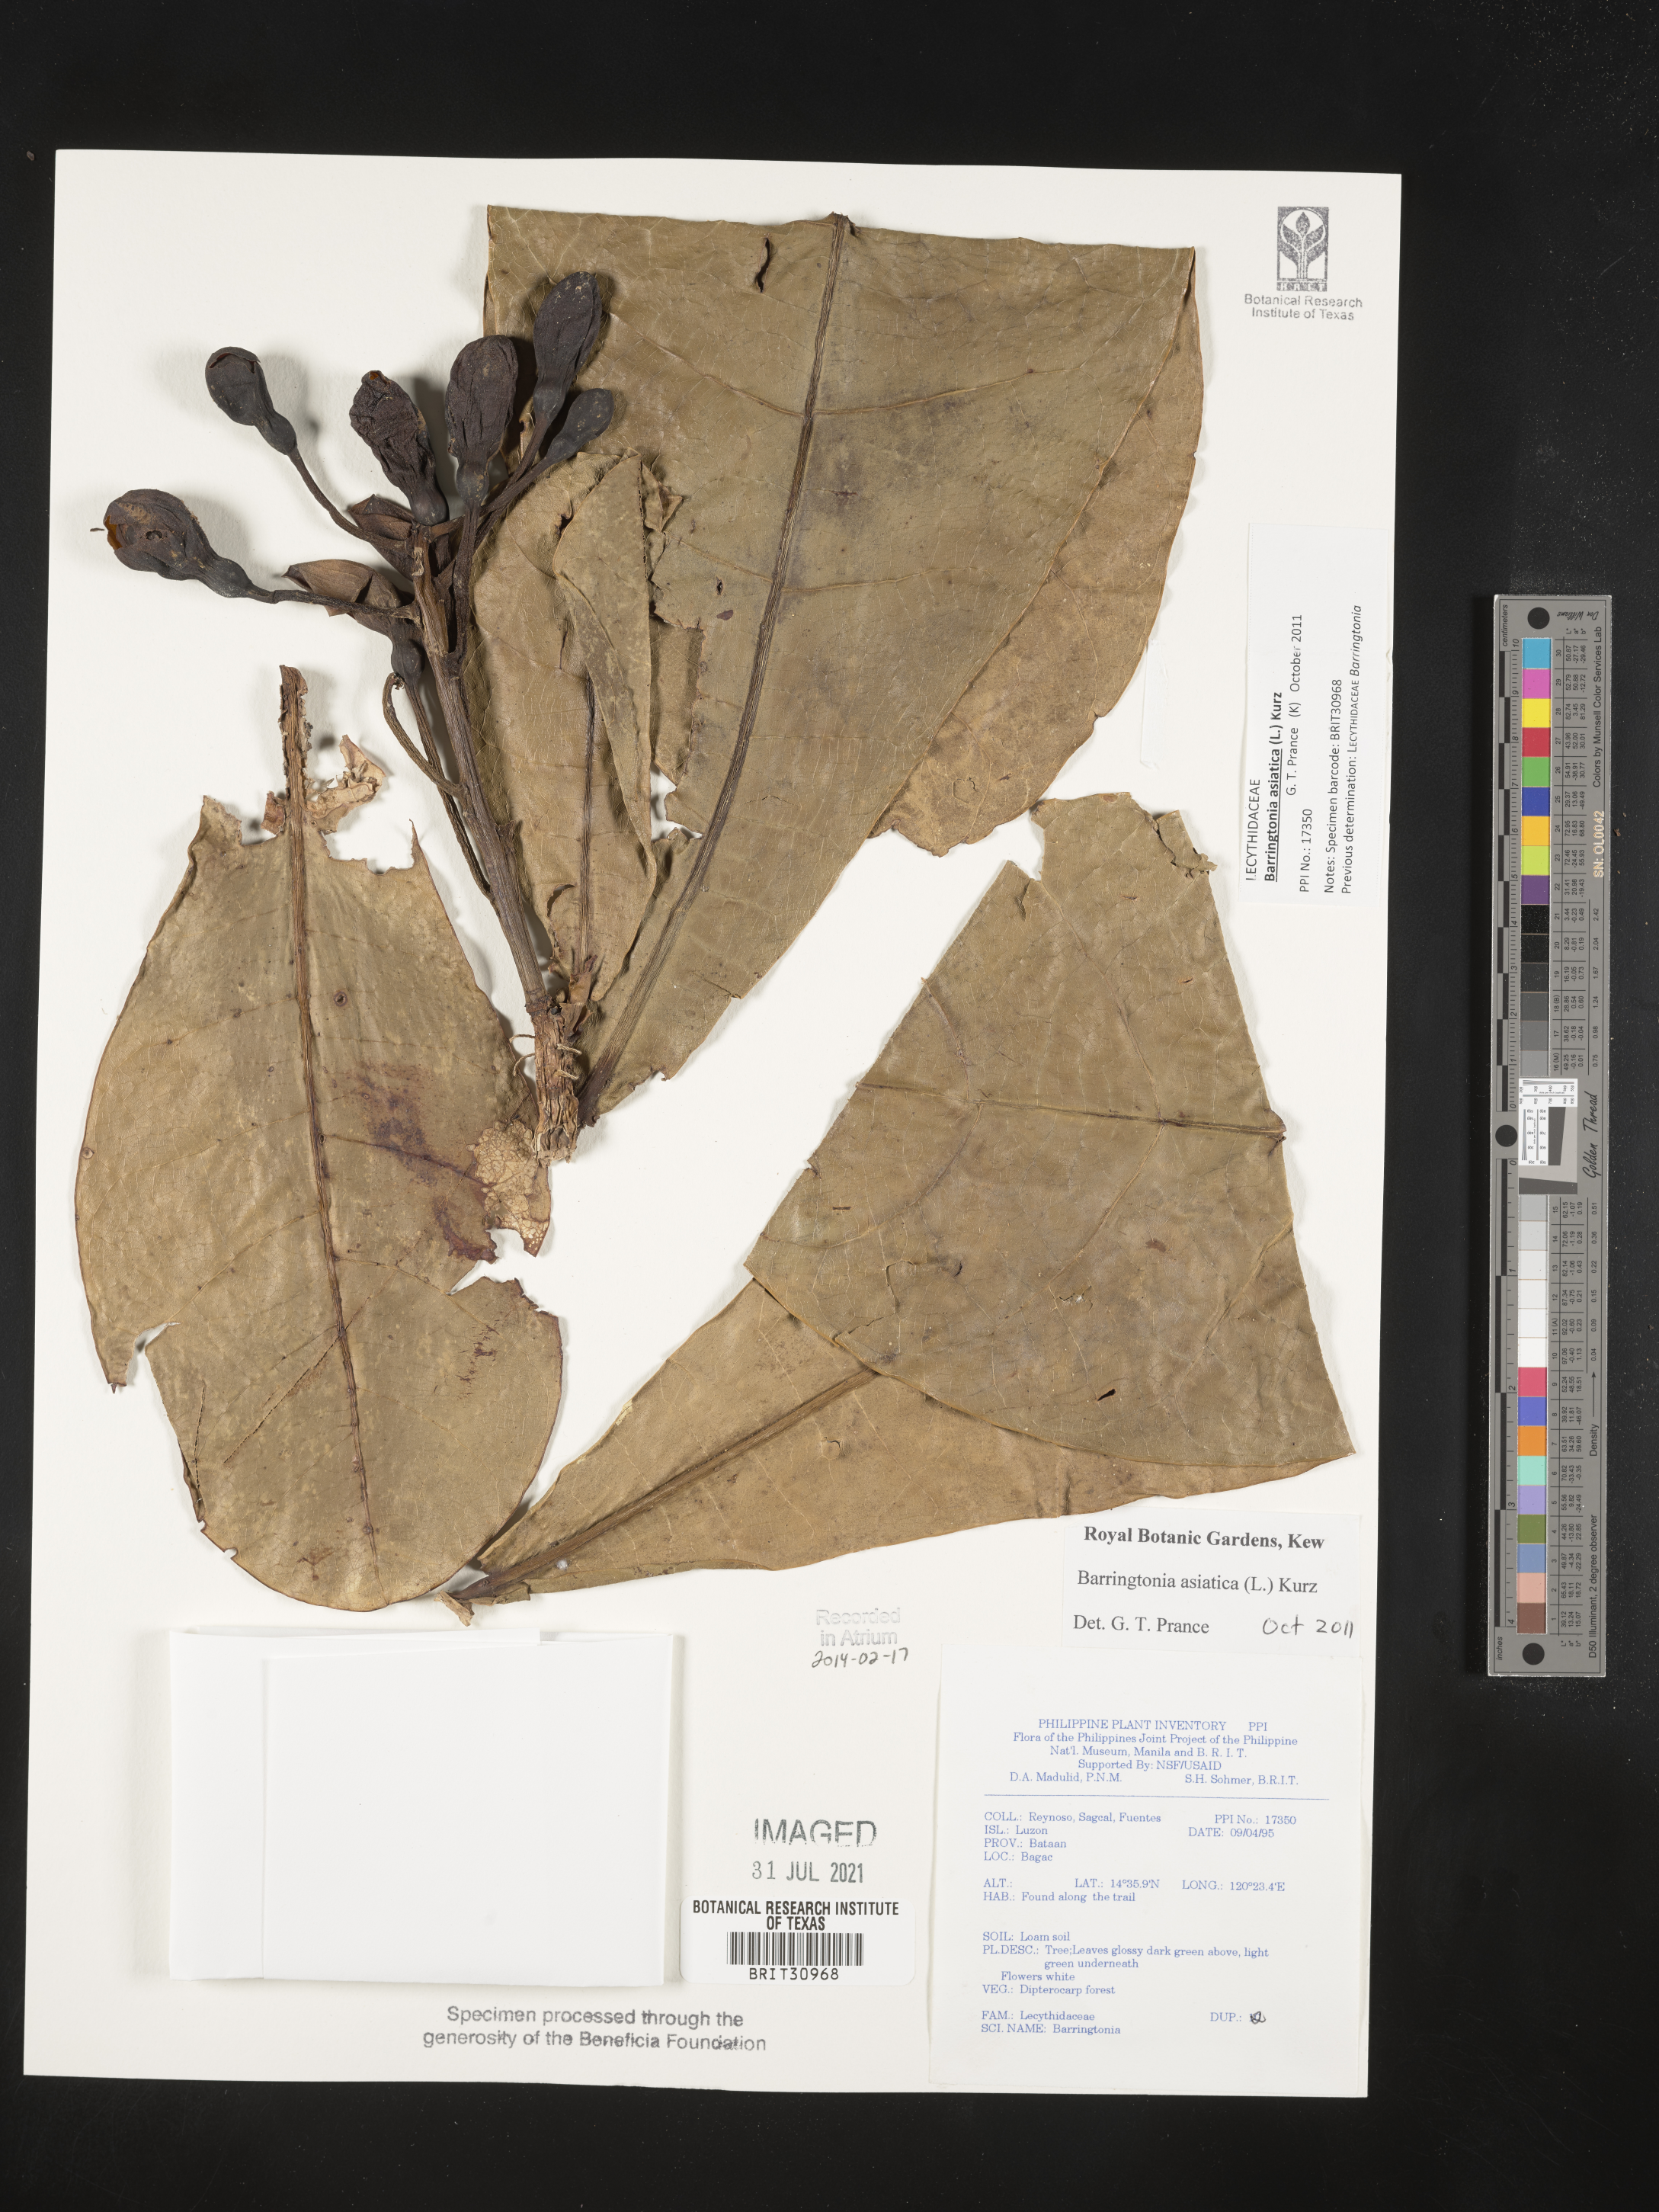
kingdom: Plantae
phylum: Tracheophyta
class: Magnoliopsida
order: Ericales
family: Lecythidaceae
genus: Barringtonia
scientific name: Barringtonia
